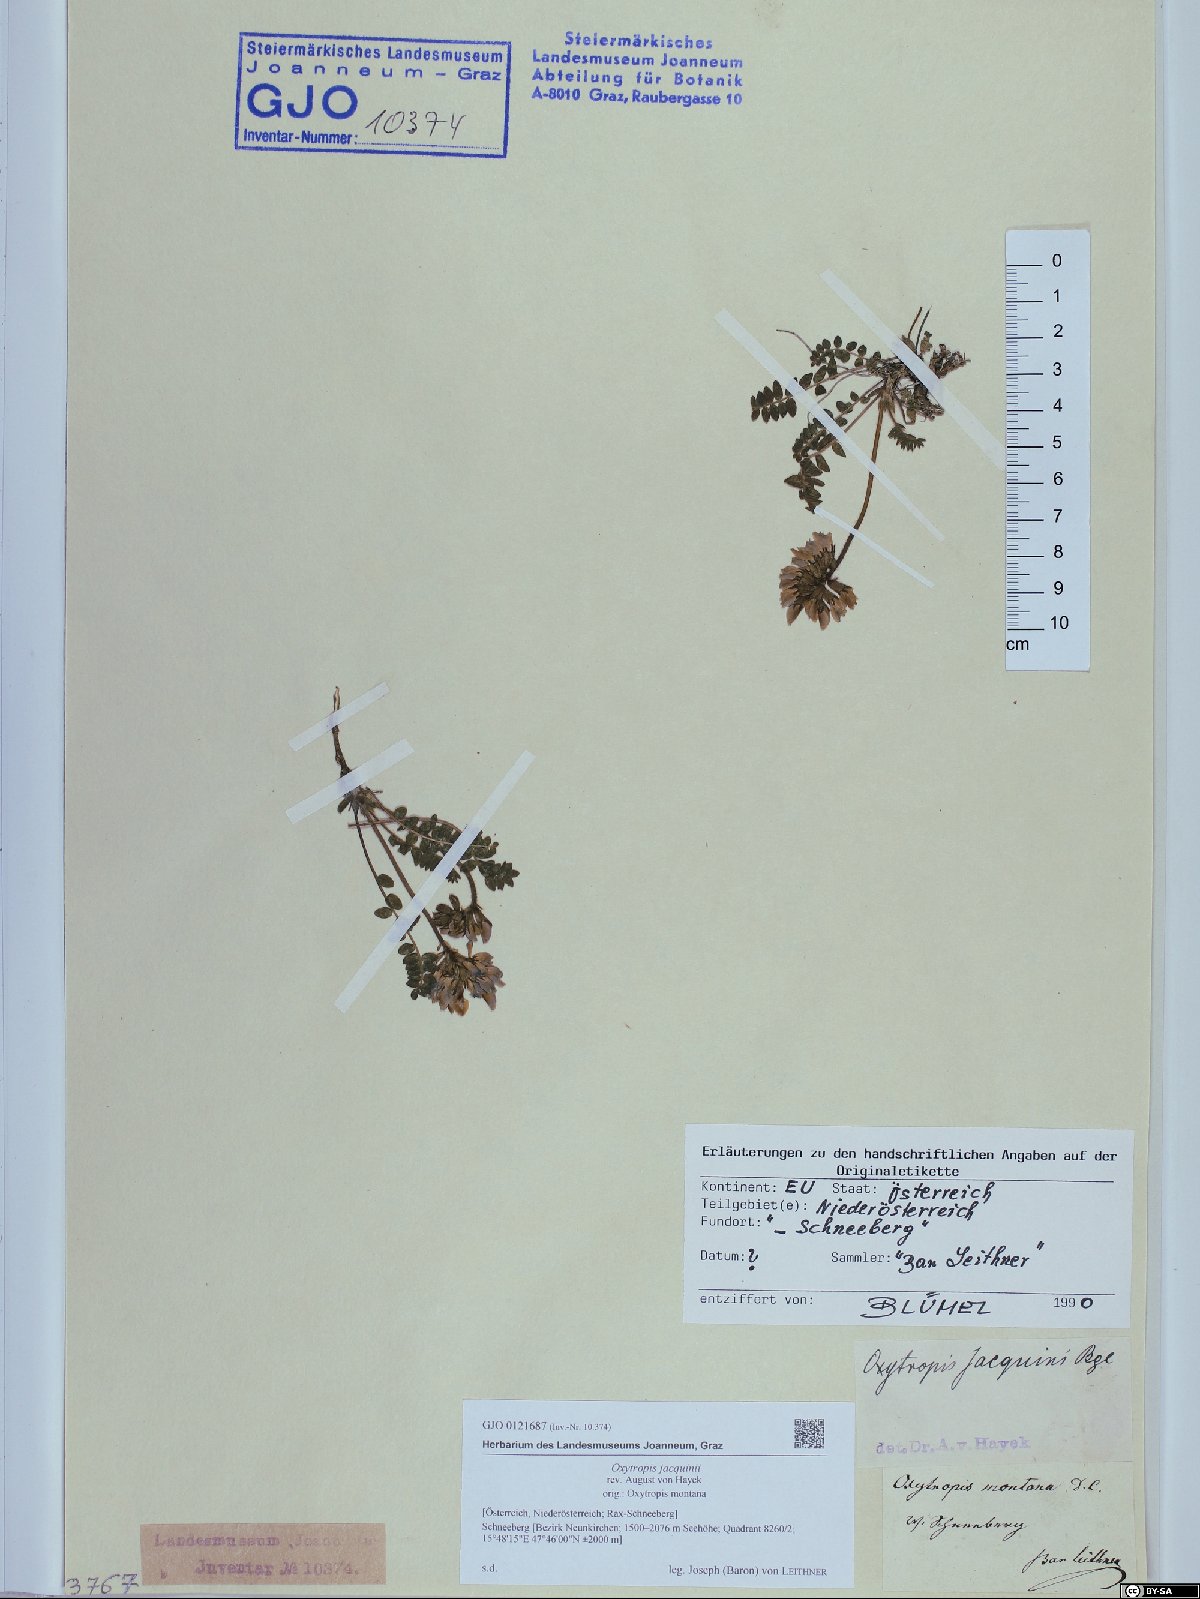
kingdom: Plantae
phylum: Tracheophyta
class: Magnoliopsida
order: Fabales
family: Fabaceae
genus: Oxytropis
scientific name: Oxytropis montana
